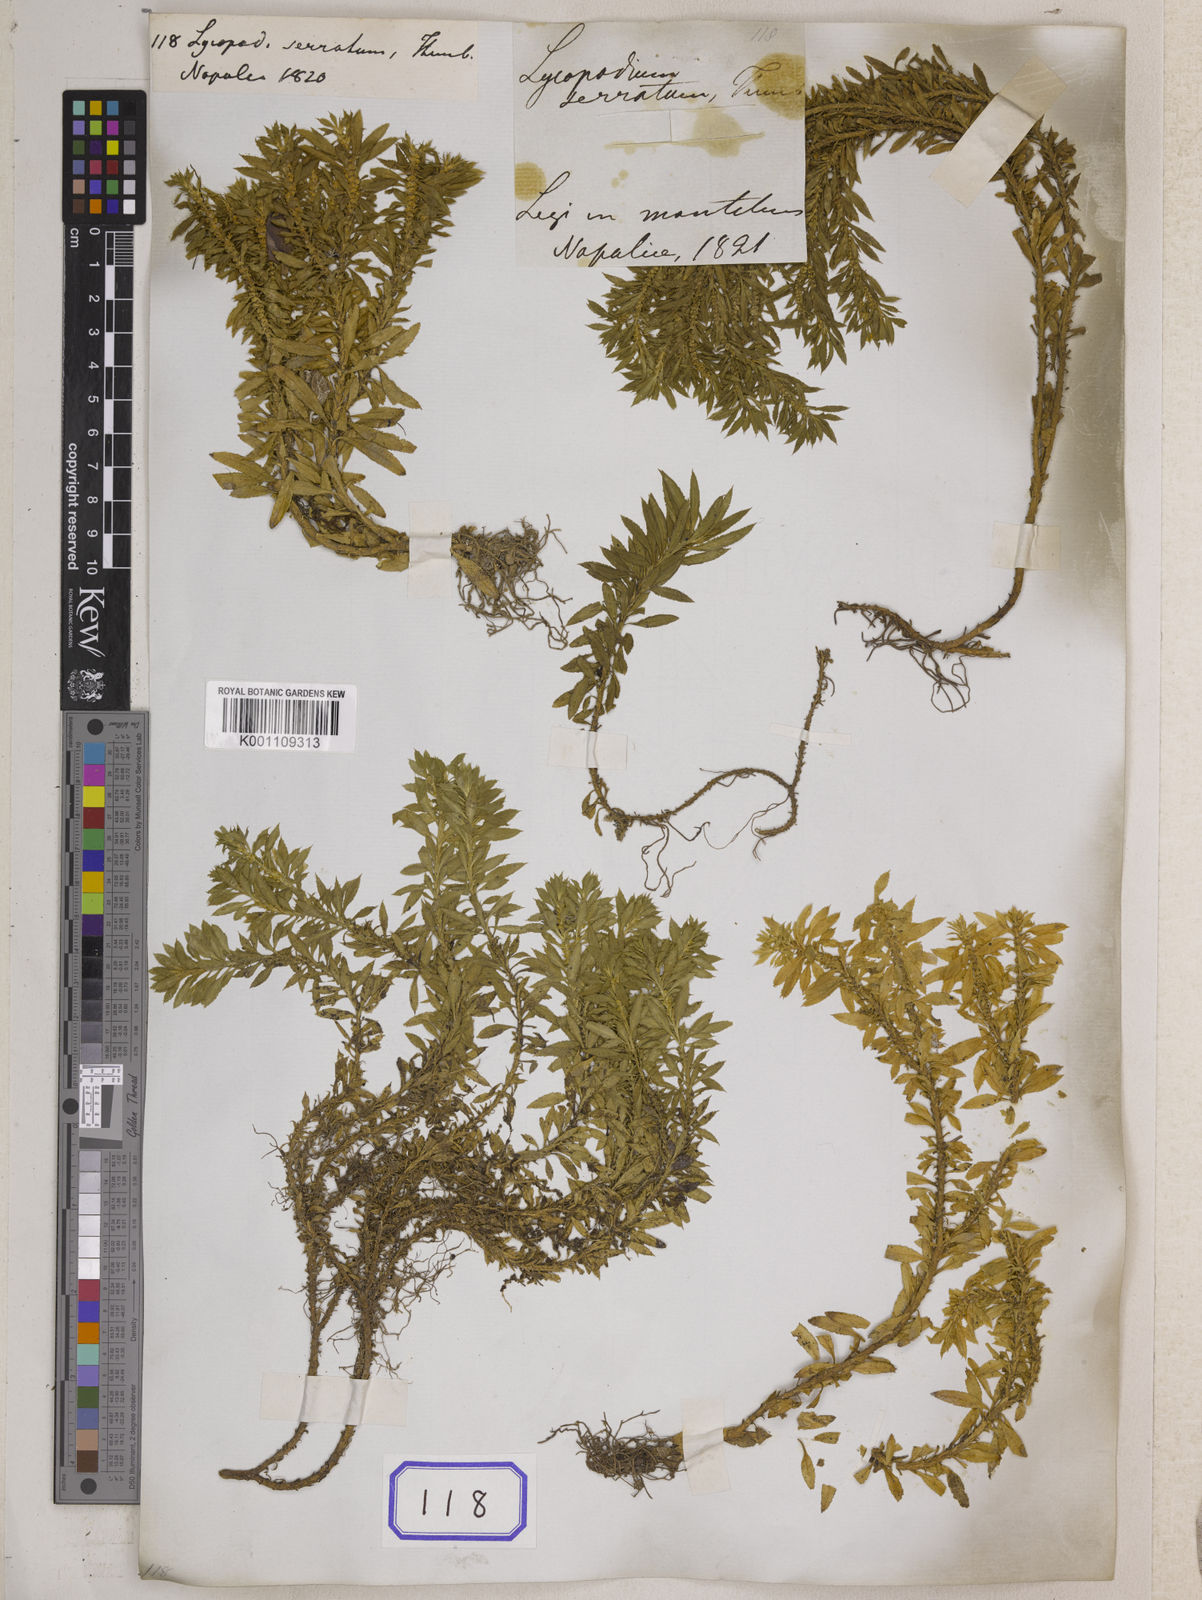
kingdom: Plantae
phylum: Tracheophyta
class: Lycopodiopsida
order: Lycopodiales
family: Lycopodiaceae
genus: Huperzia
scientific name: Huperzia serrata
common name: Toothed club-moss
